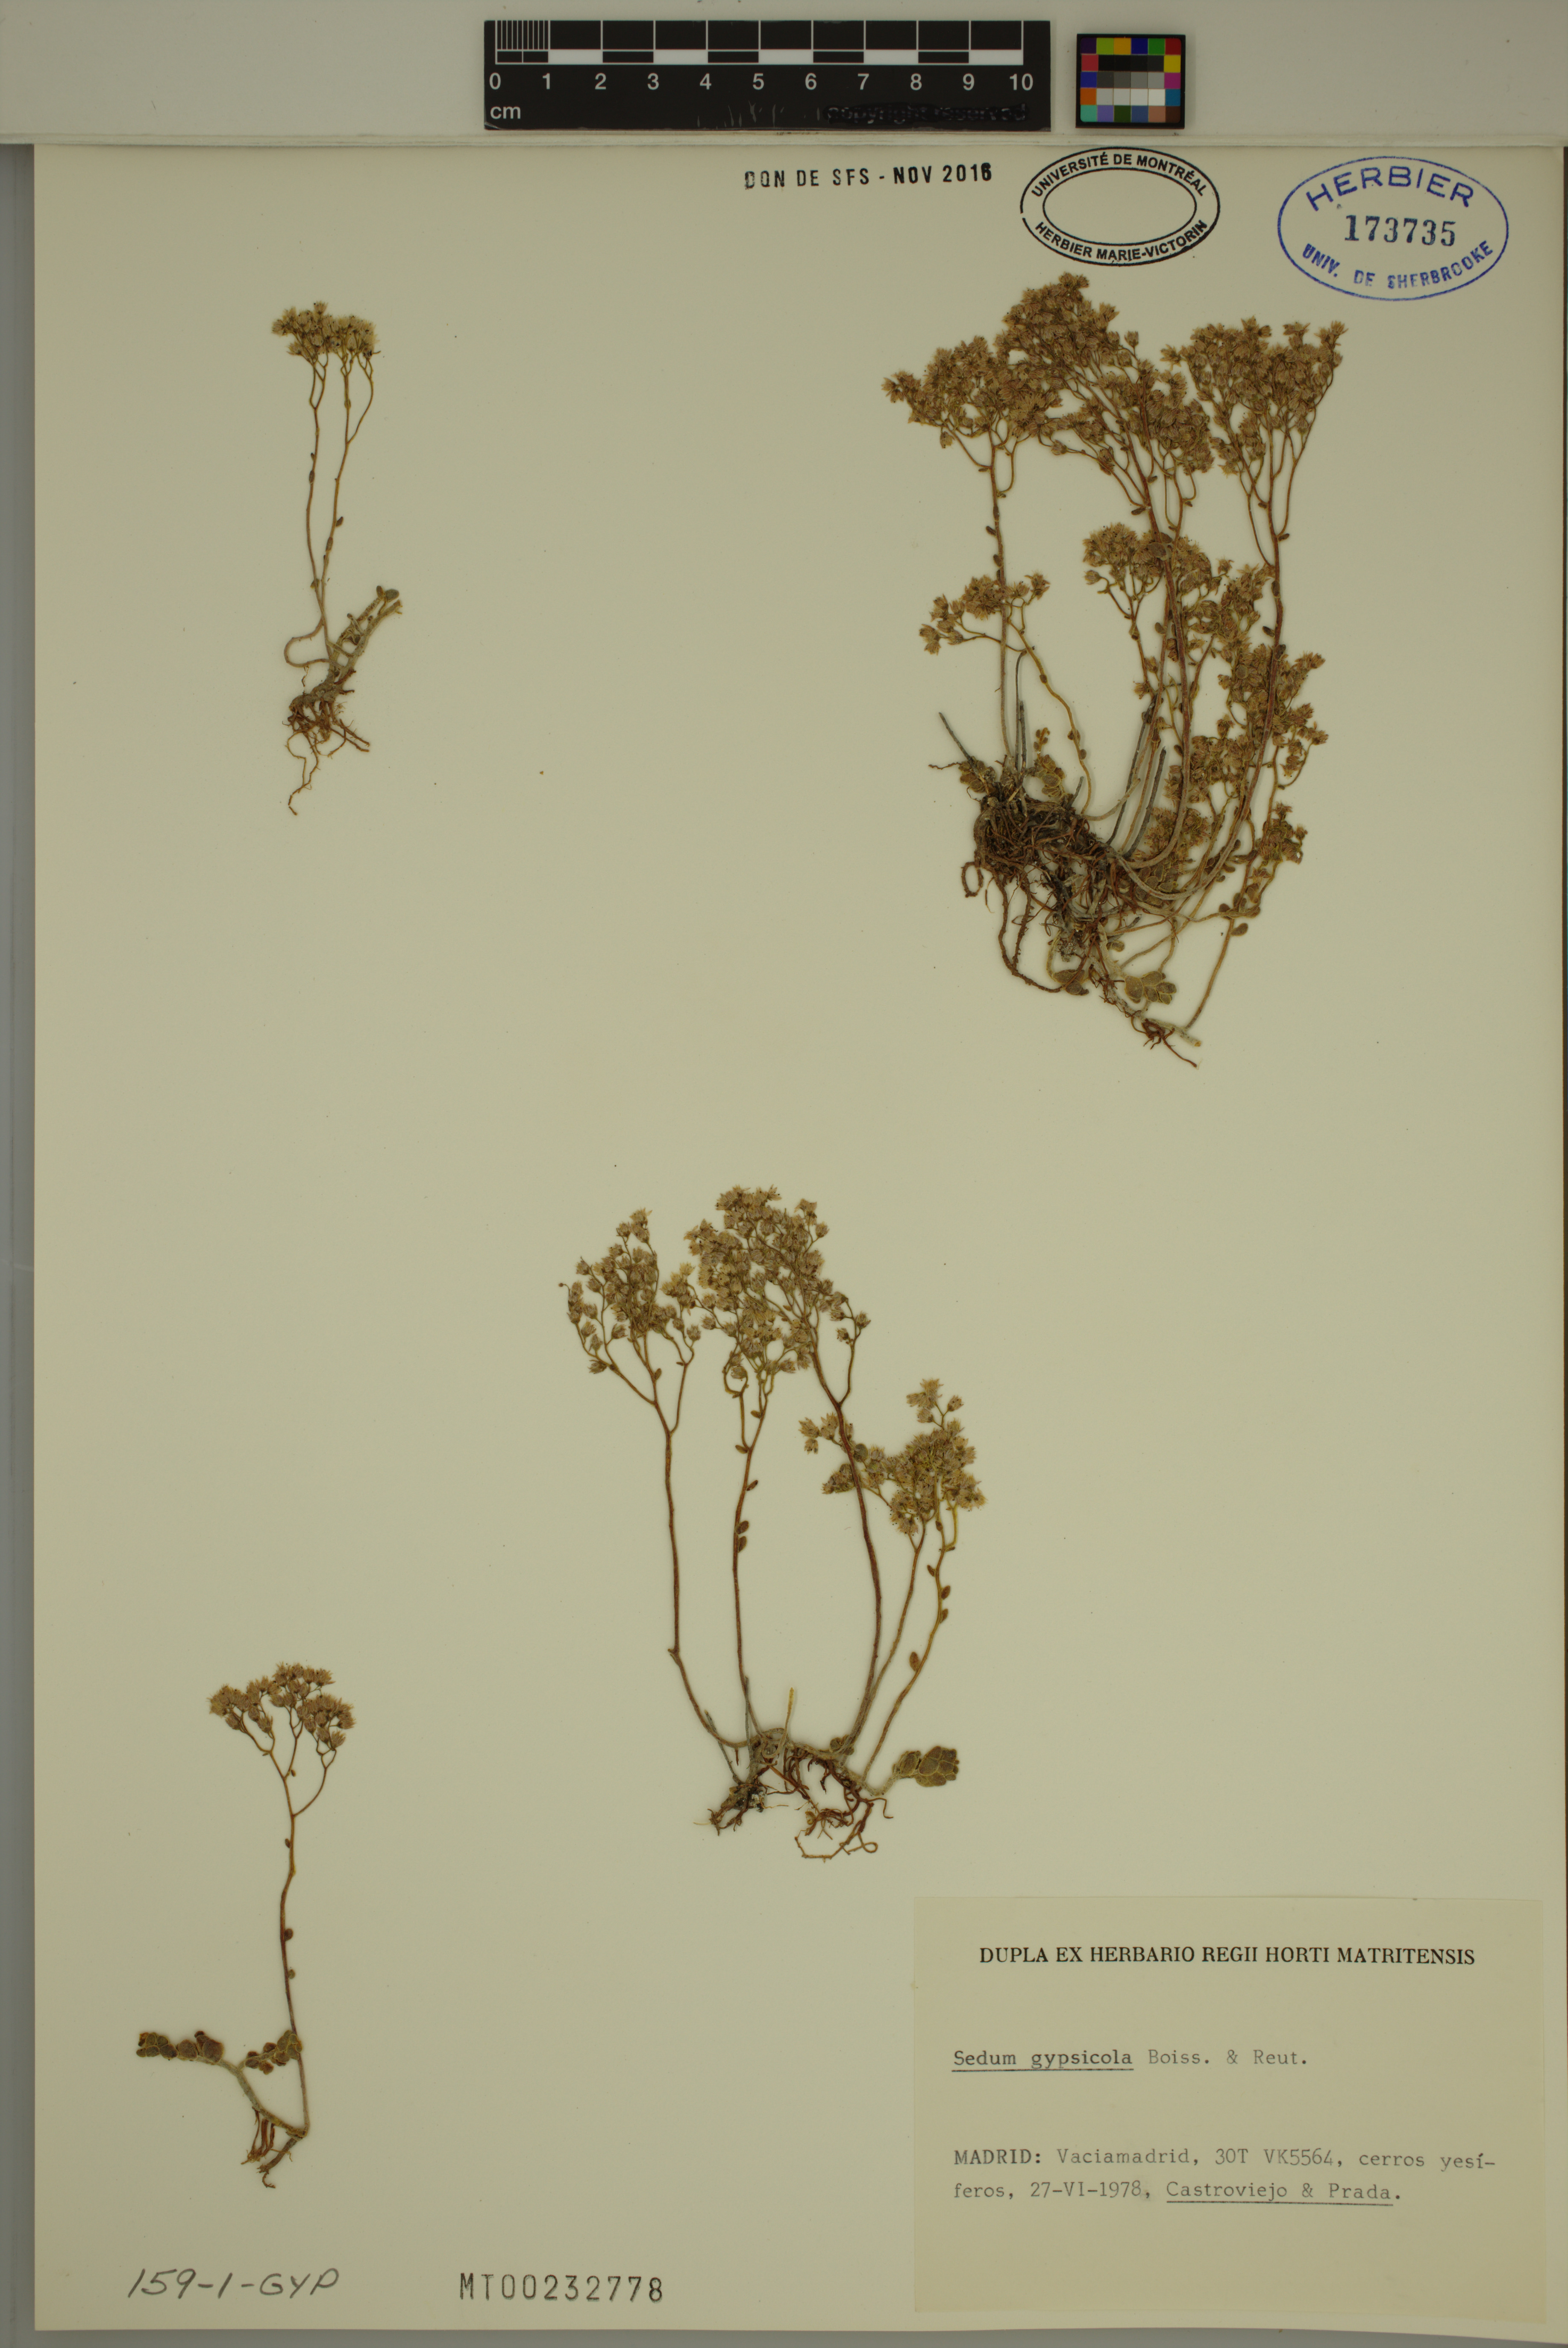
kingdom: Plantae
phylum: Tracheophyta
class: Magnoliopsida
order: Saxifragales
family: Crassulaceae
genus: Sedum
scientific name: Sedum gypsicola
